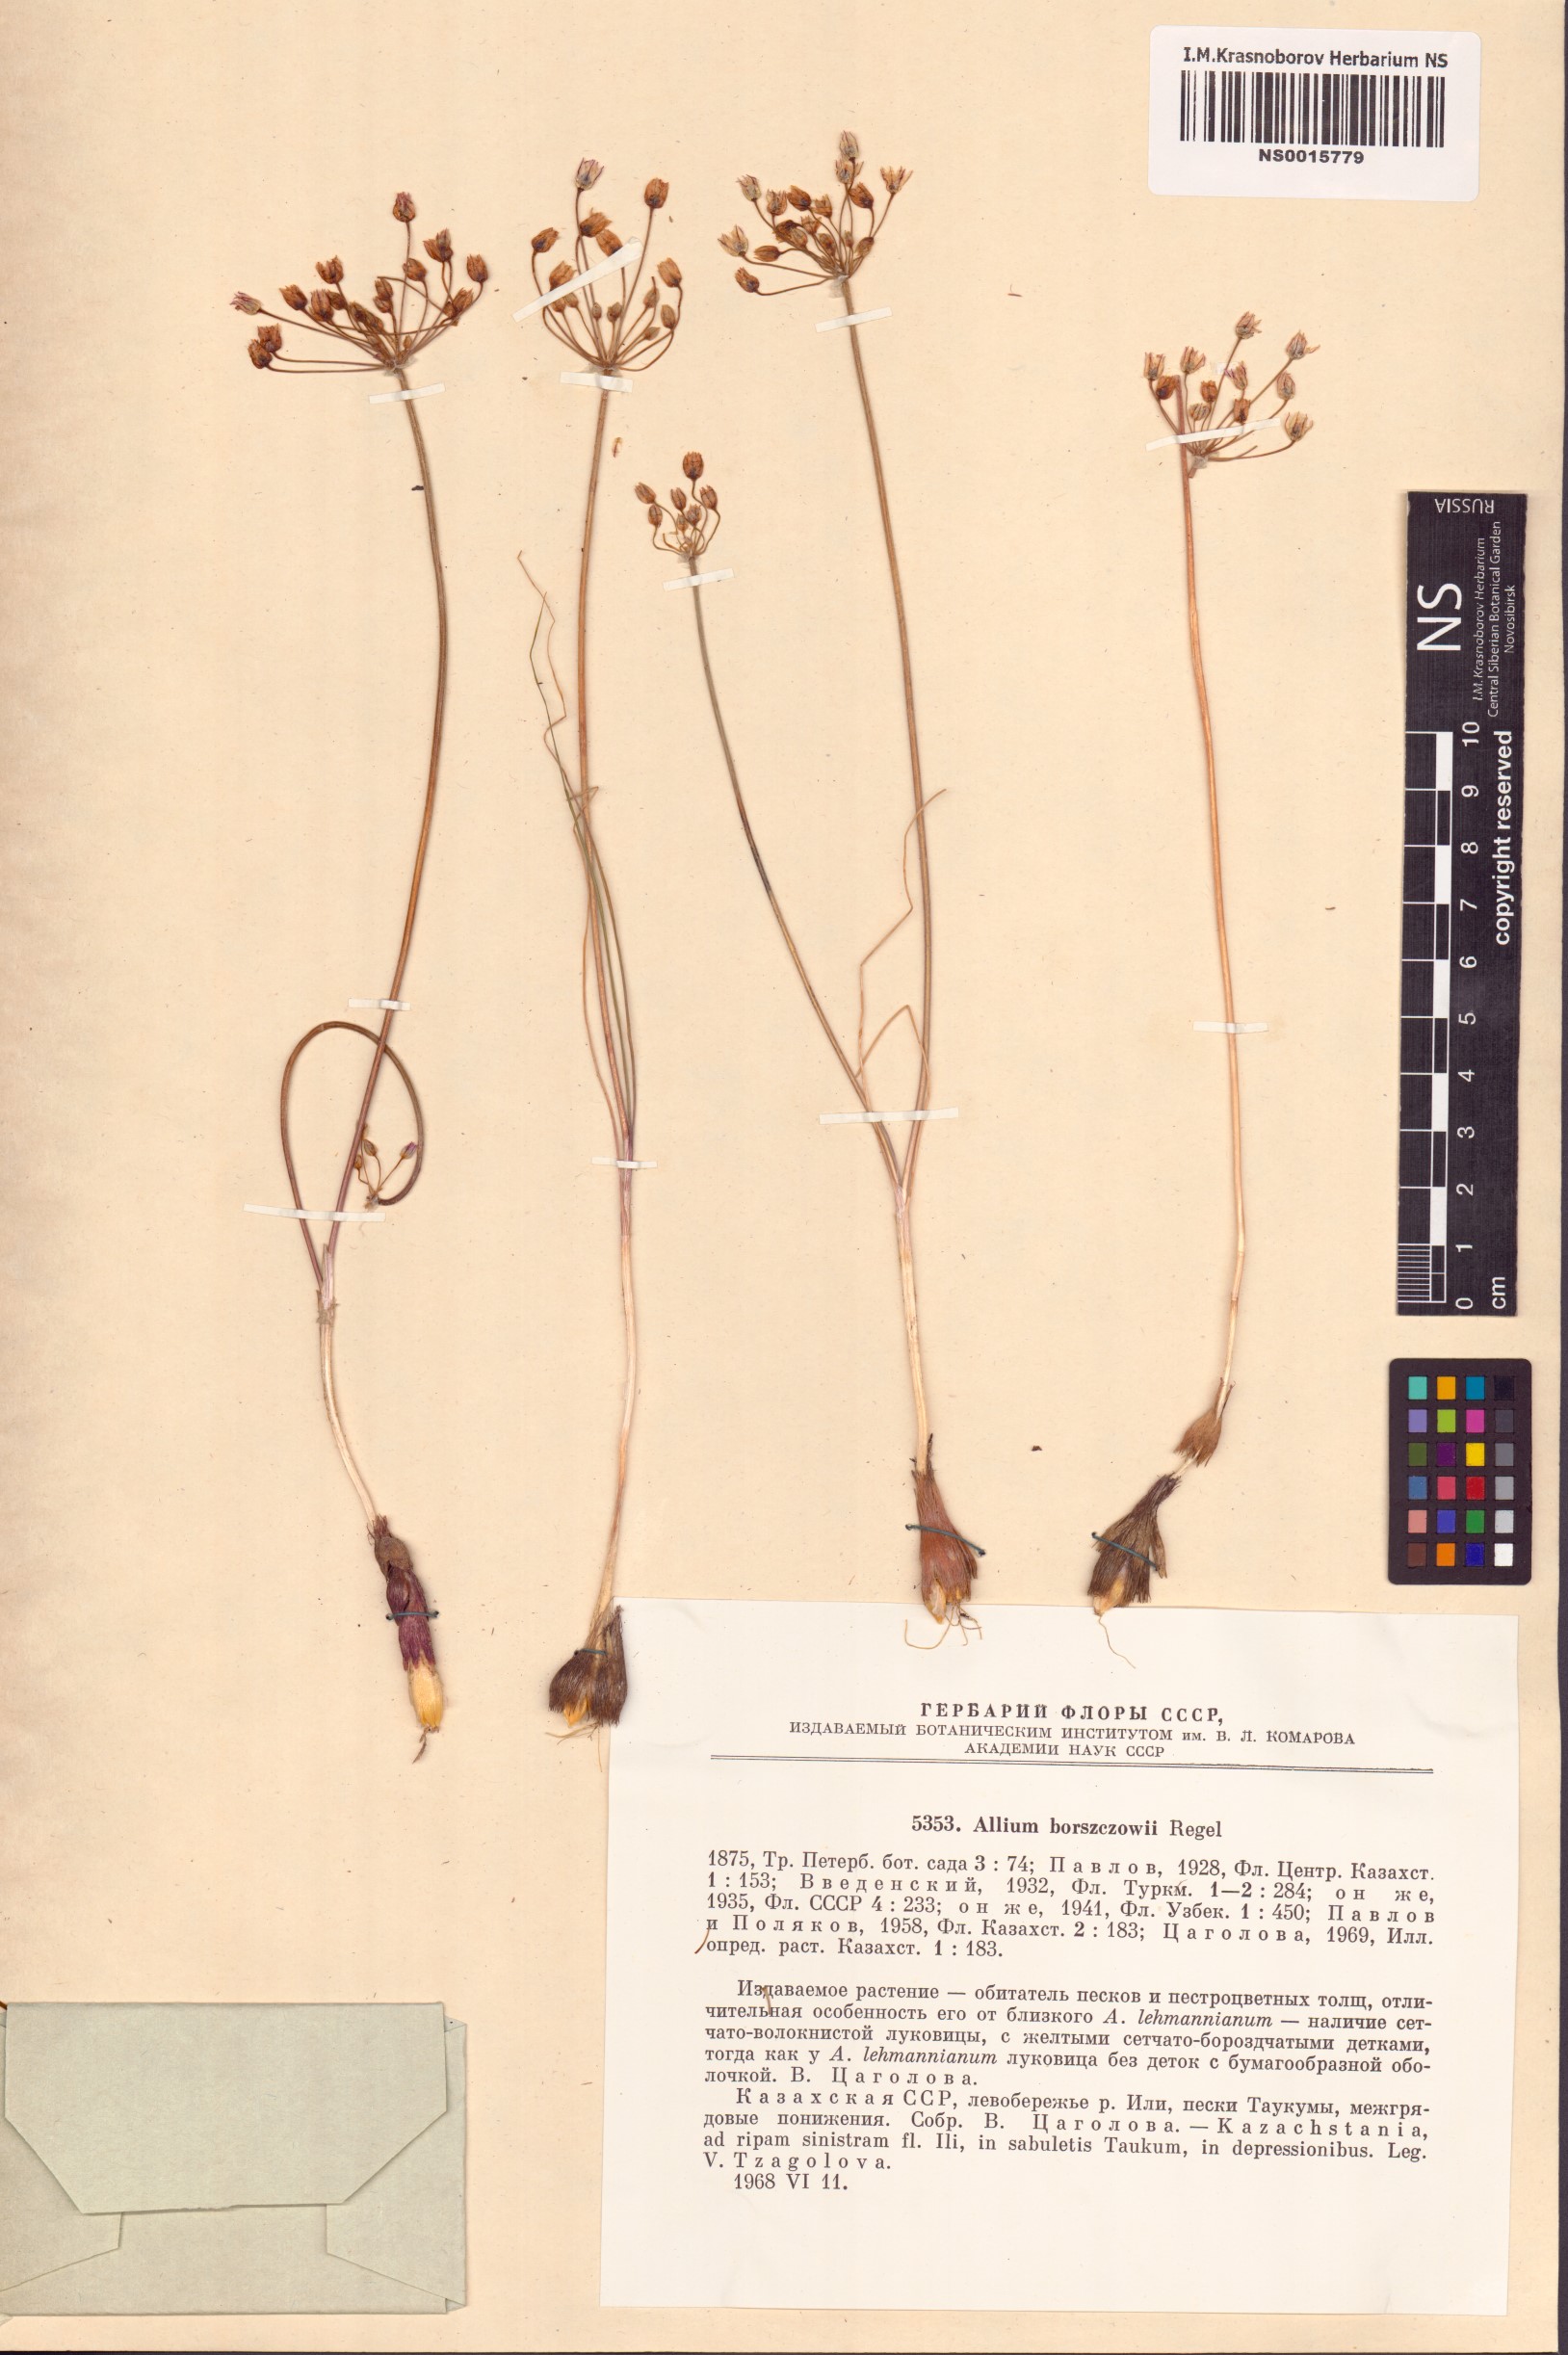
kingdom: Plantae
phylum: Tracheophyta
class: Liliopsida
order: Asparagales
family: Amaryllidaceae
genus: Allium
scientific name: Allium borszczowii
